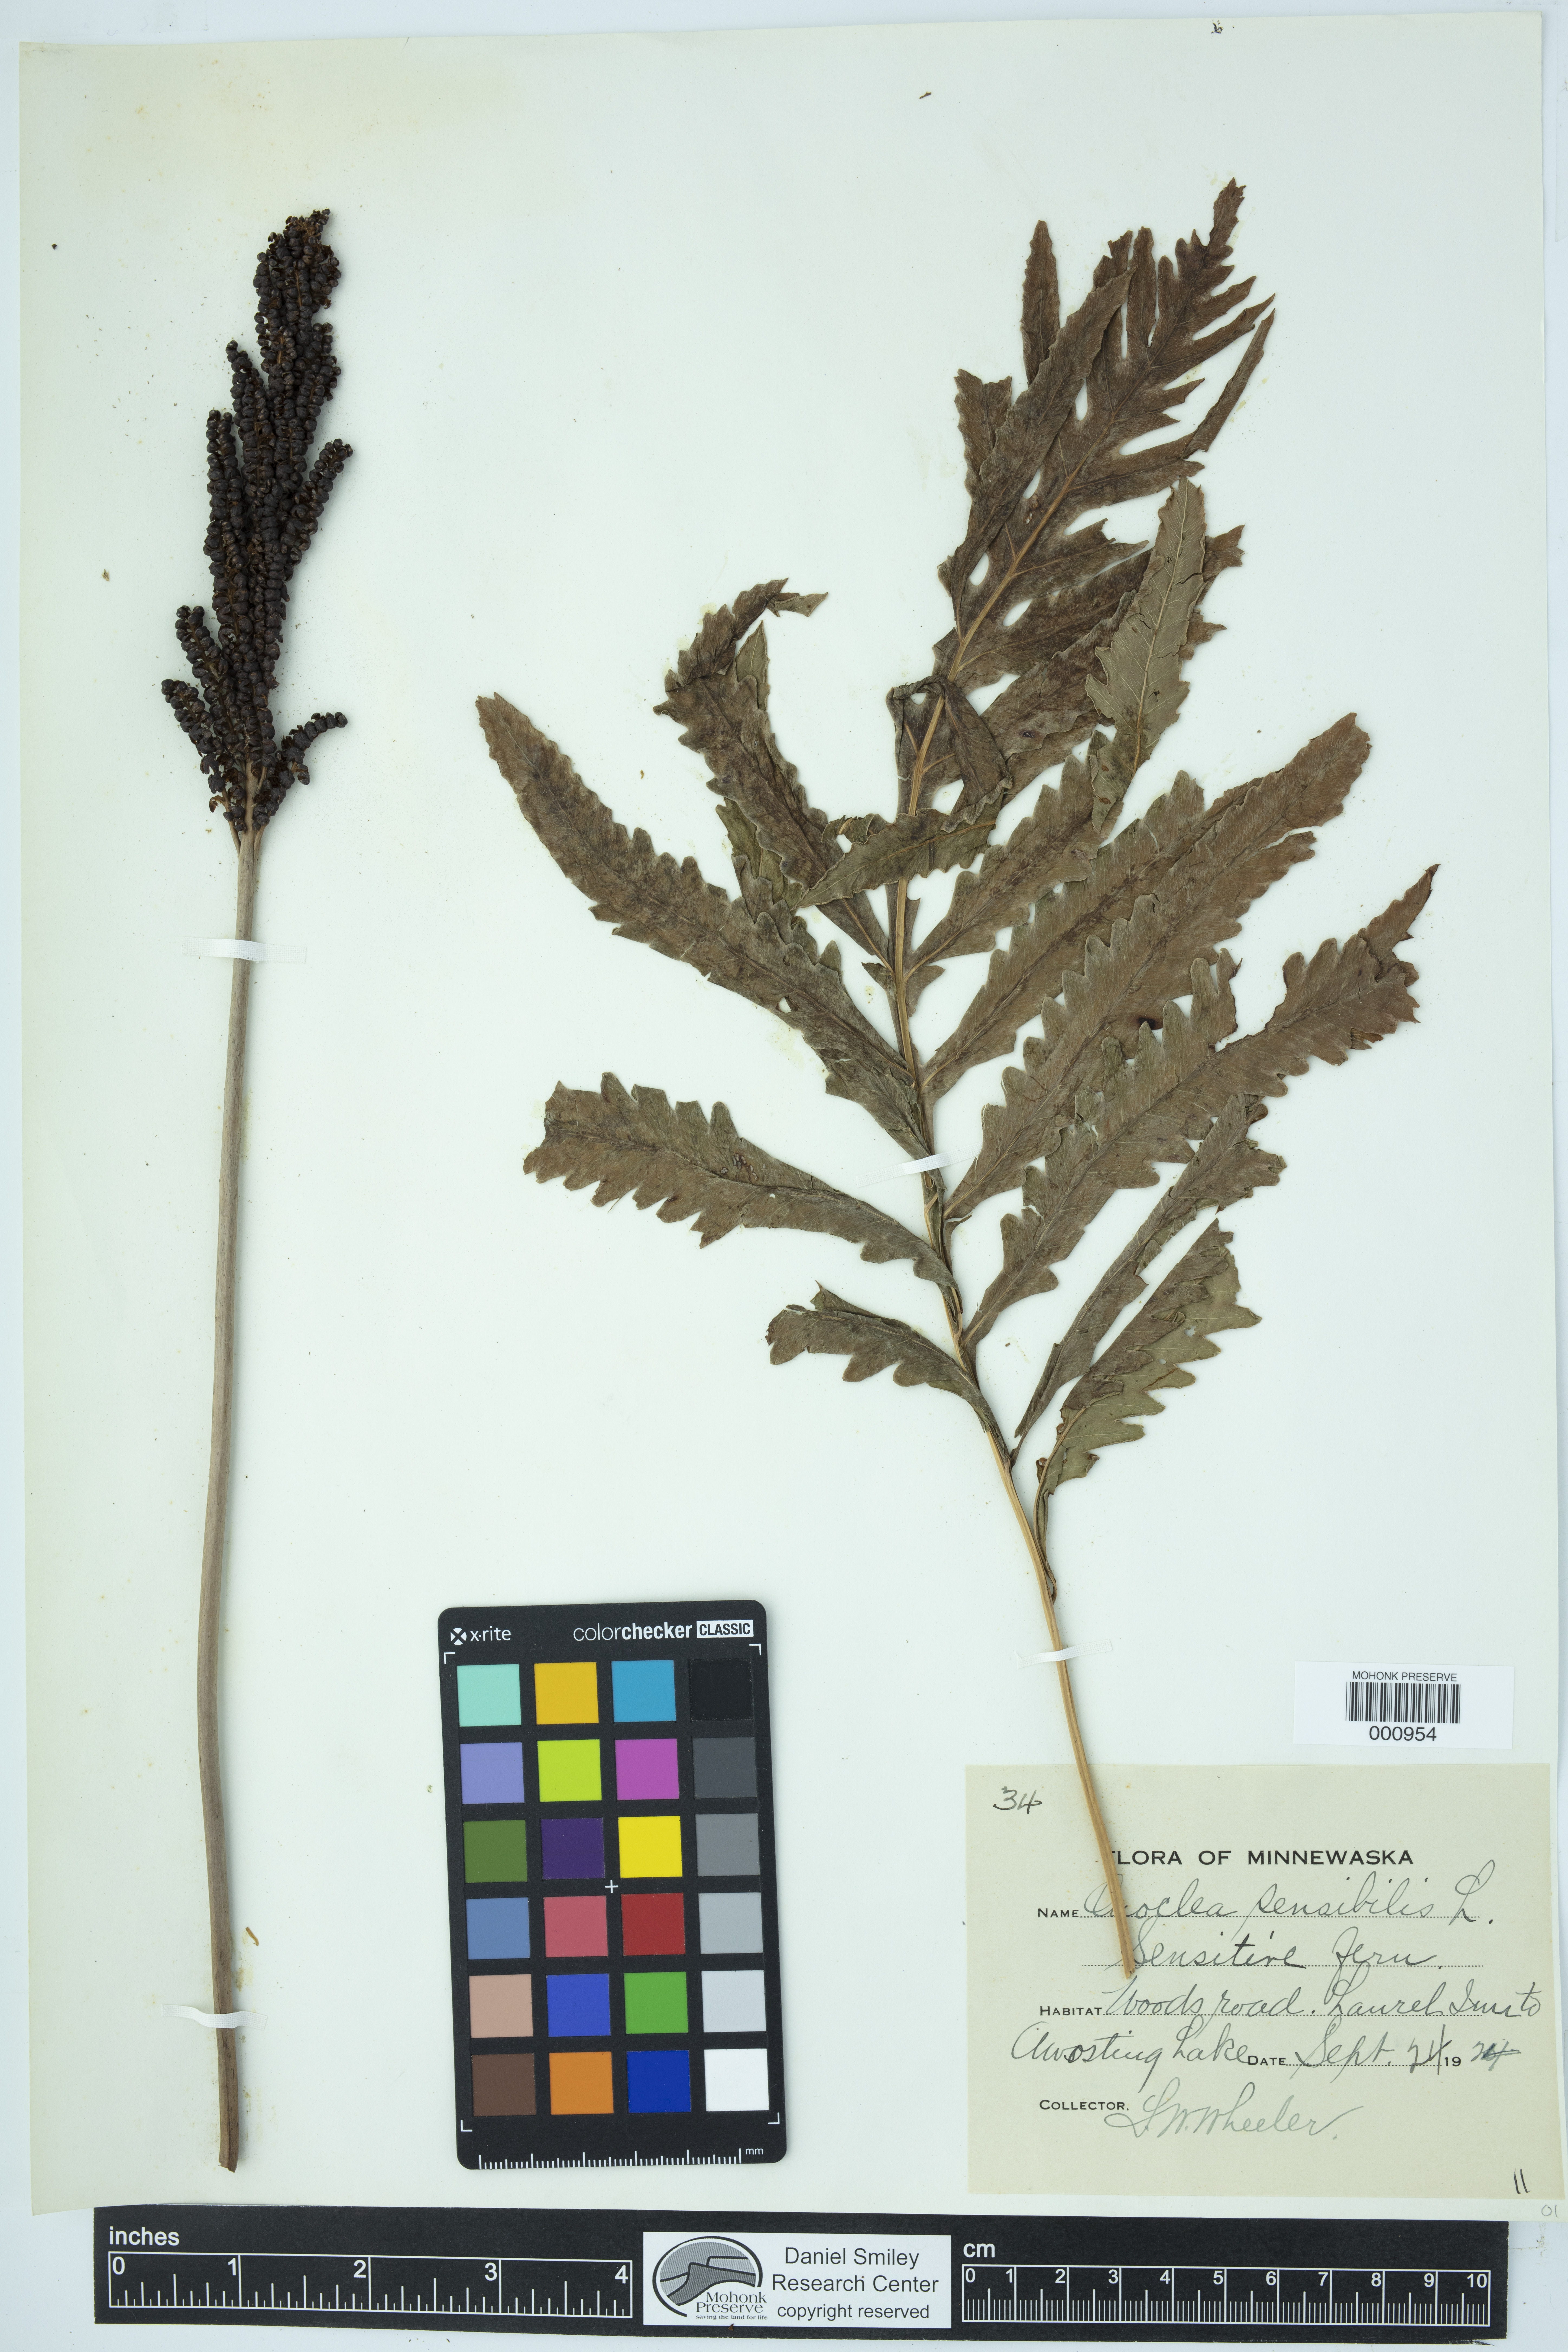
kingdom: Plantae
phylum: Tracheophyta
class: Polypodiopsida
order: Polypodiales
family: Onocleaceae
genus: Onoclea
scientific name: Onoclea sensibilis
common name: Sensitive fern
